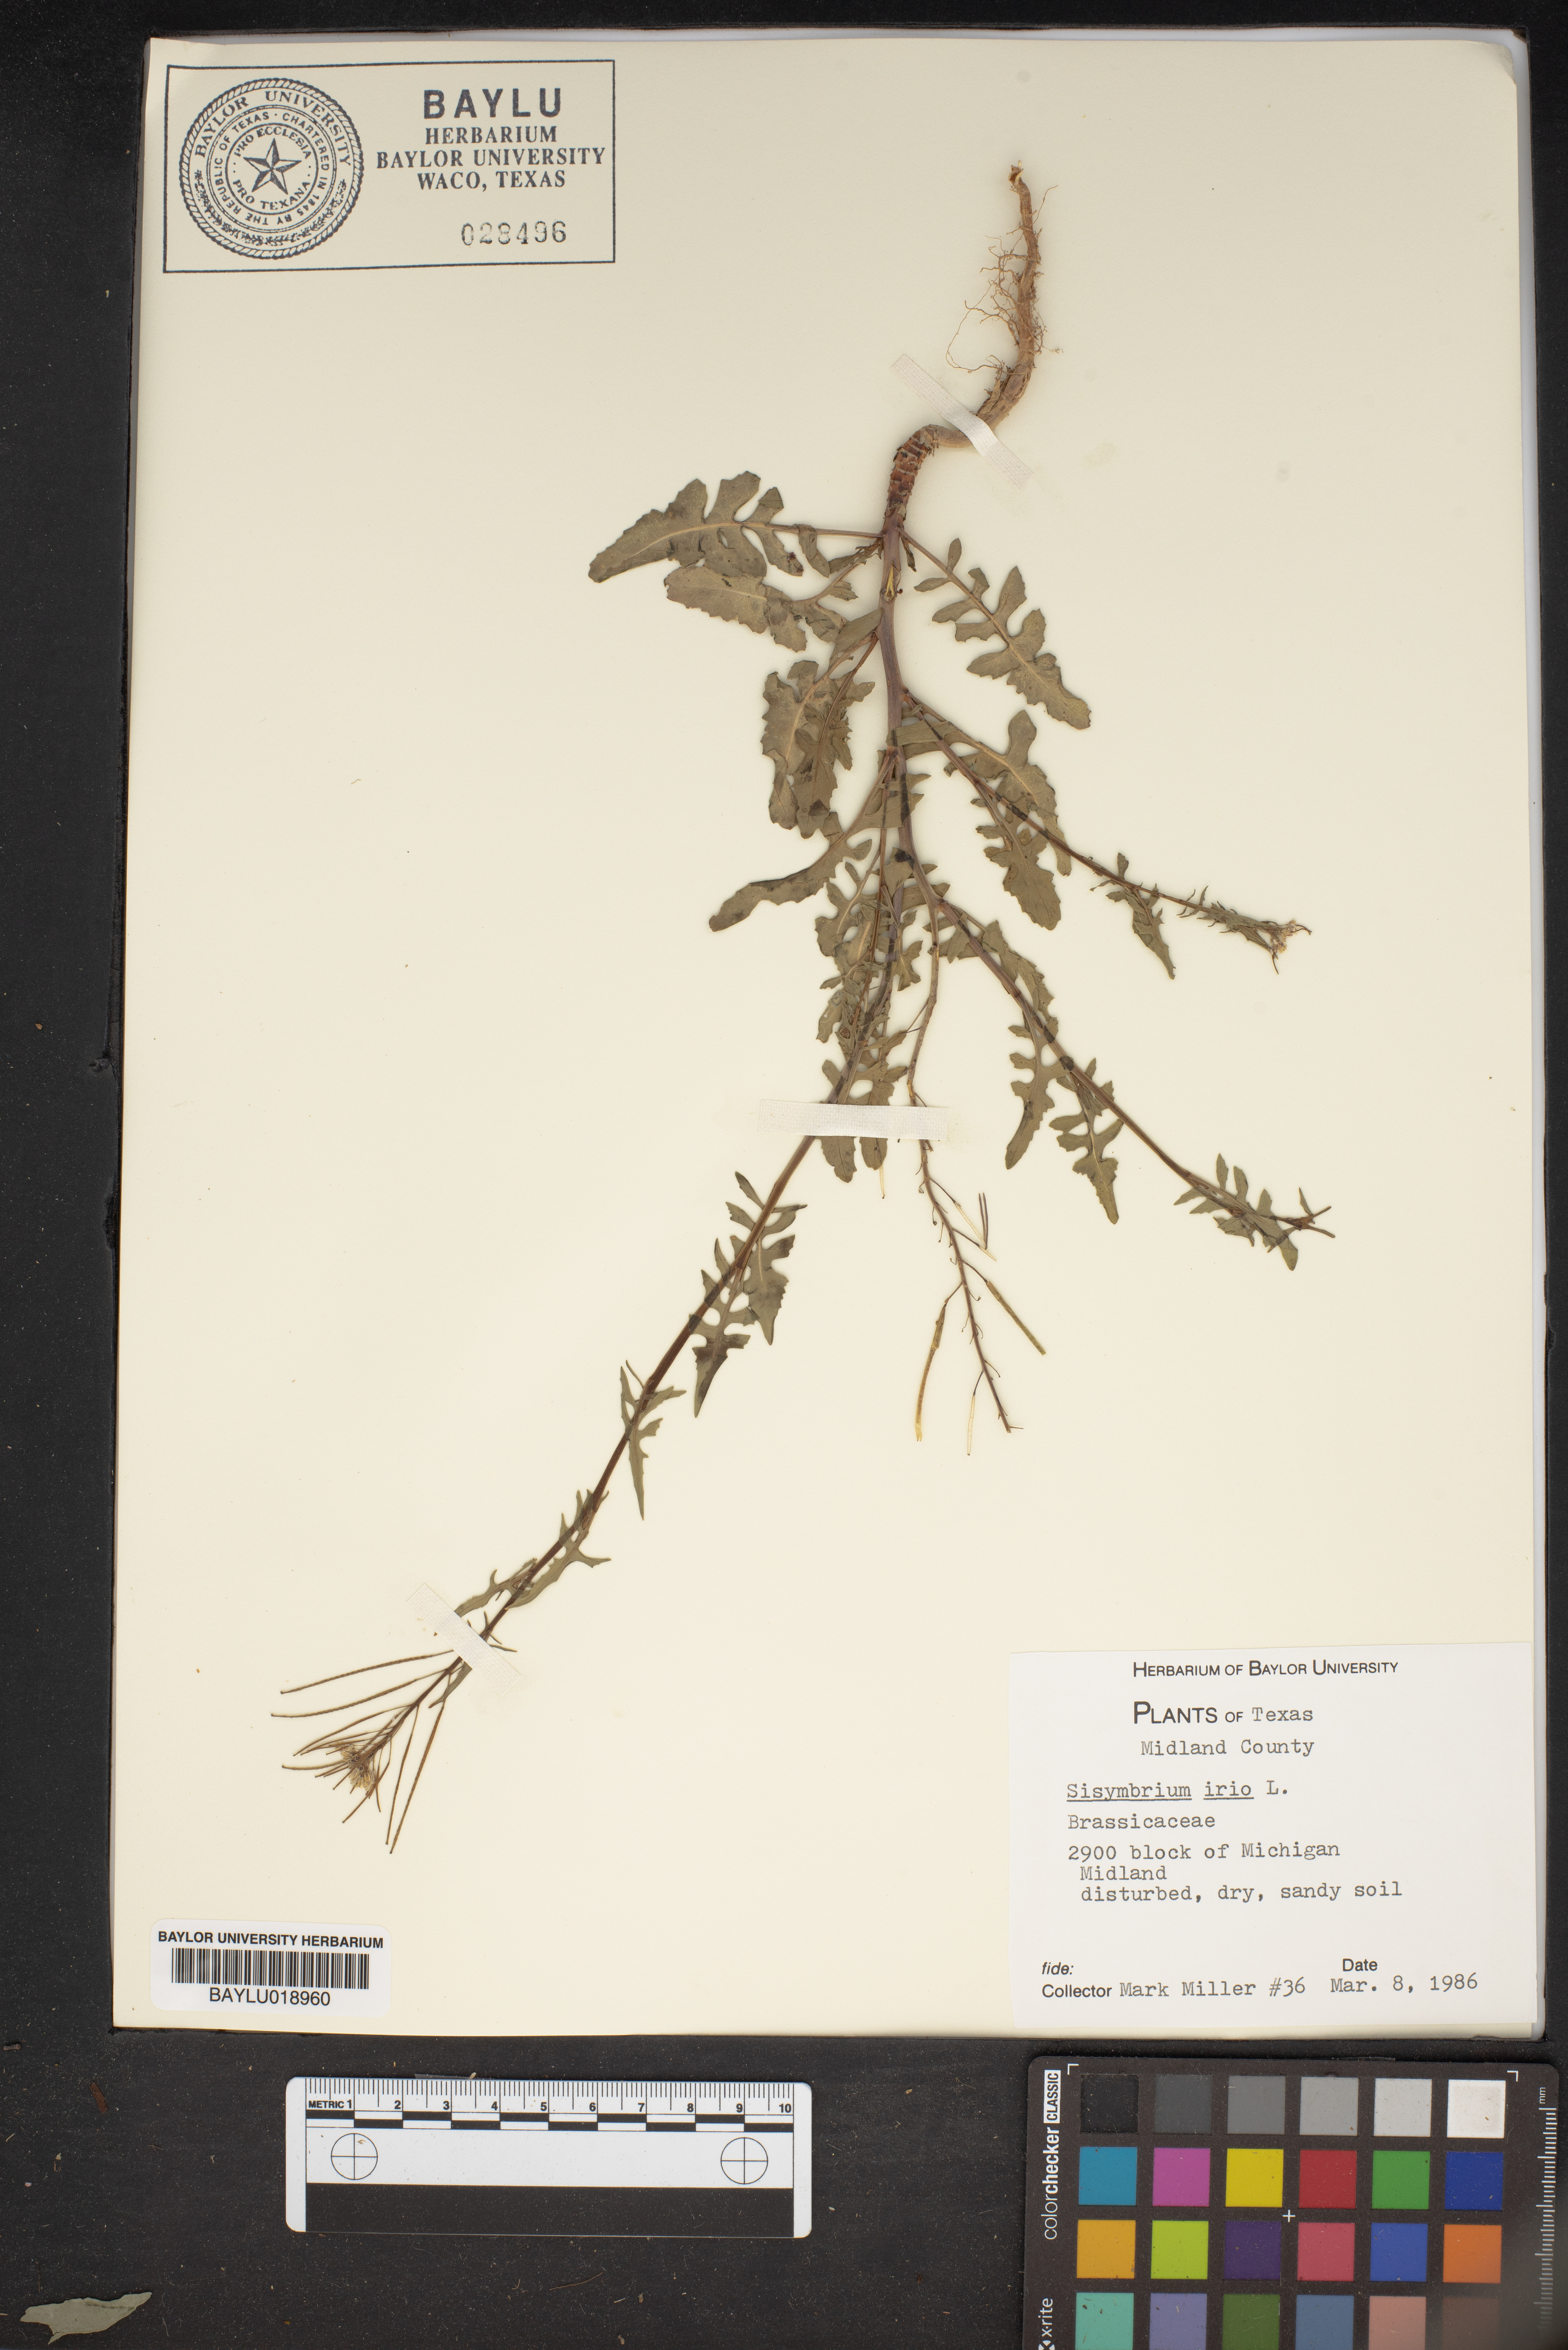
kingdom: Plantae
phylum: Tracheophyta
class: Magnoliopsida
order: Brassicales
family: Brassicaceae
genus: Sisymbrium
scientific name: Sisymbrium irio
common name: London rocket
